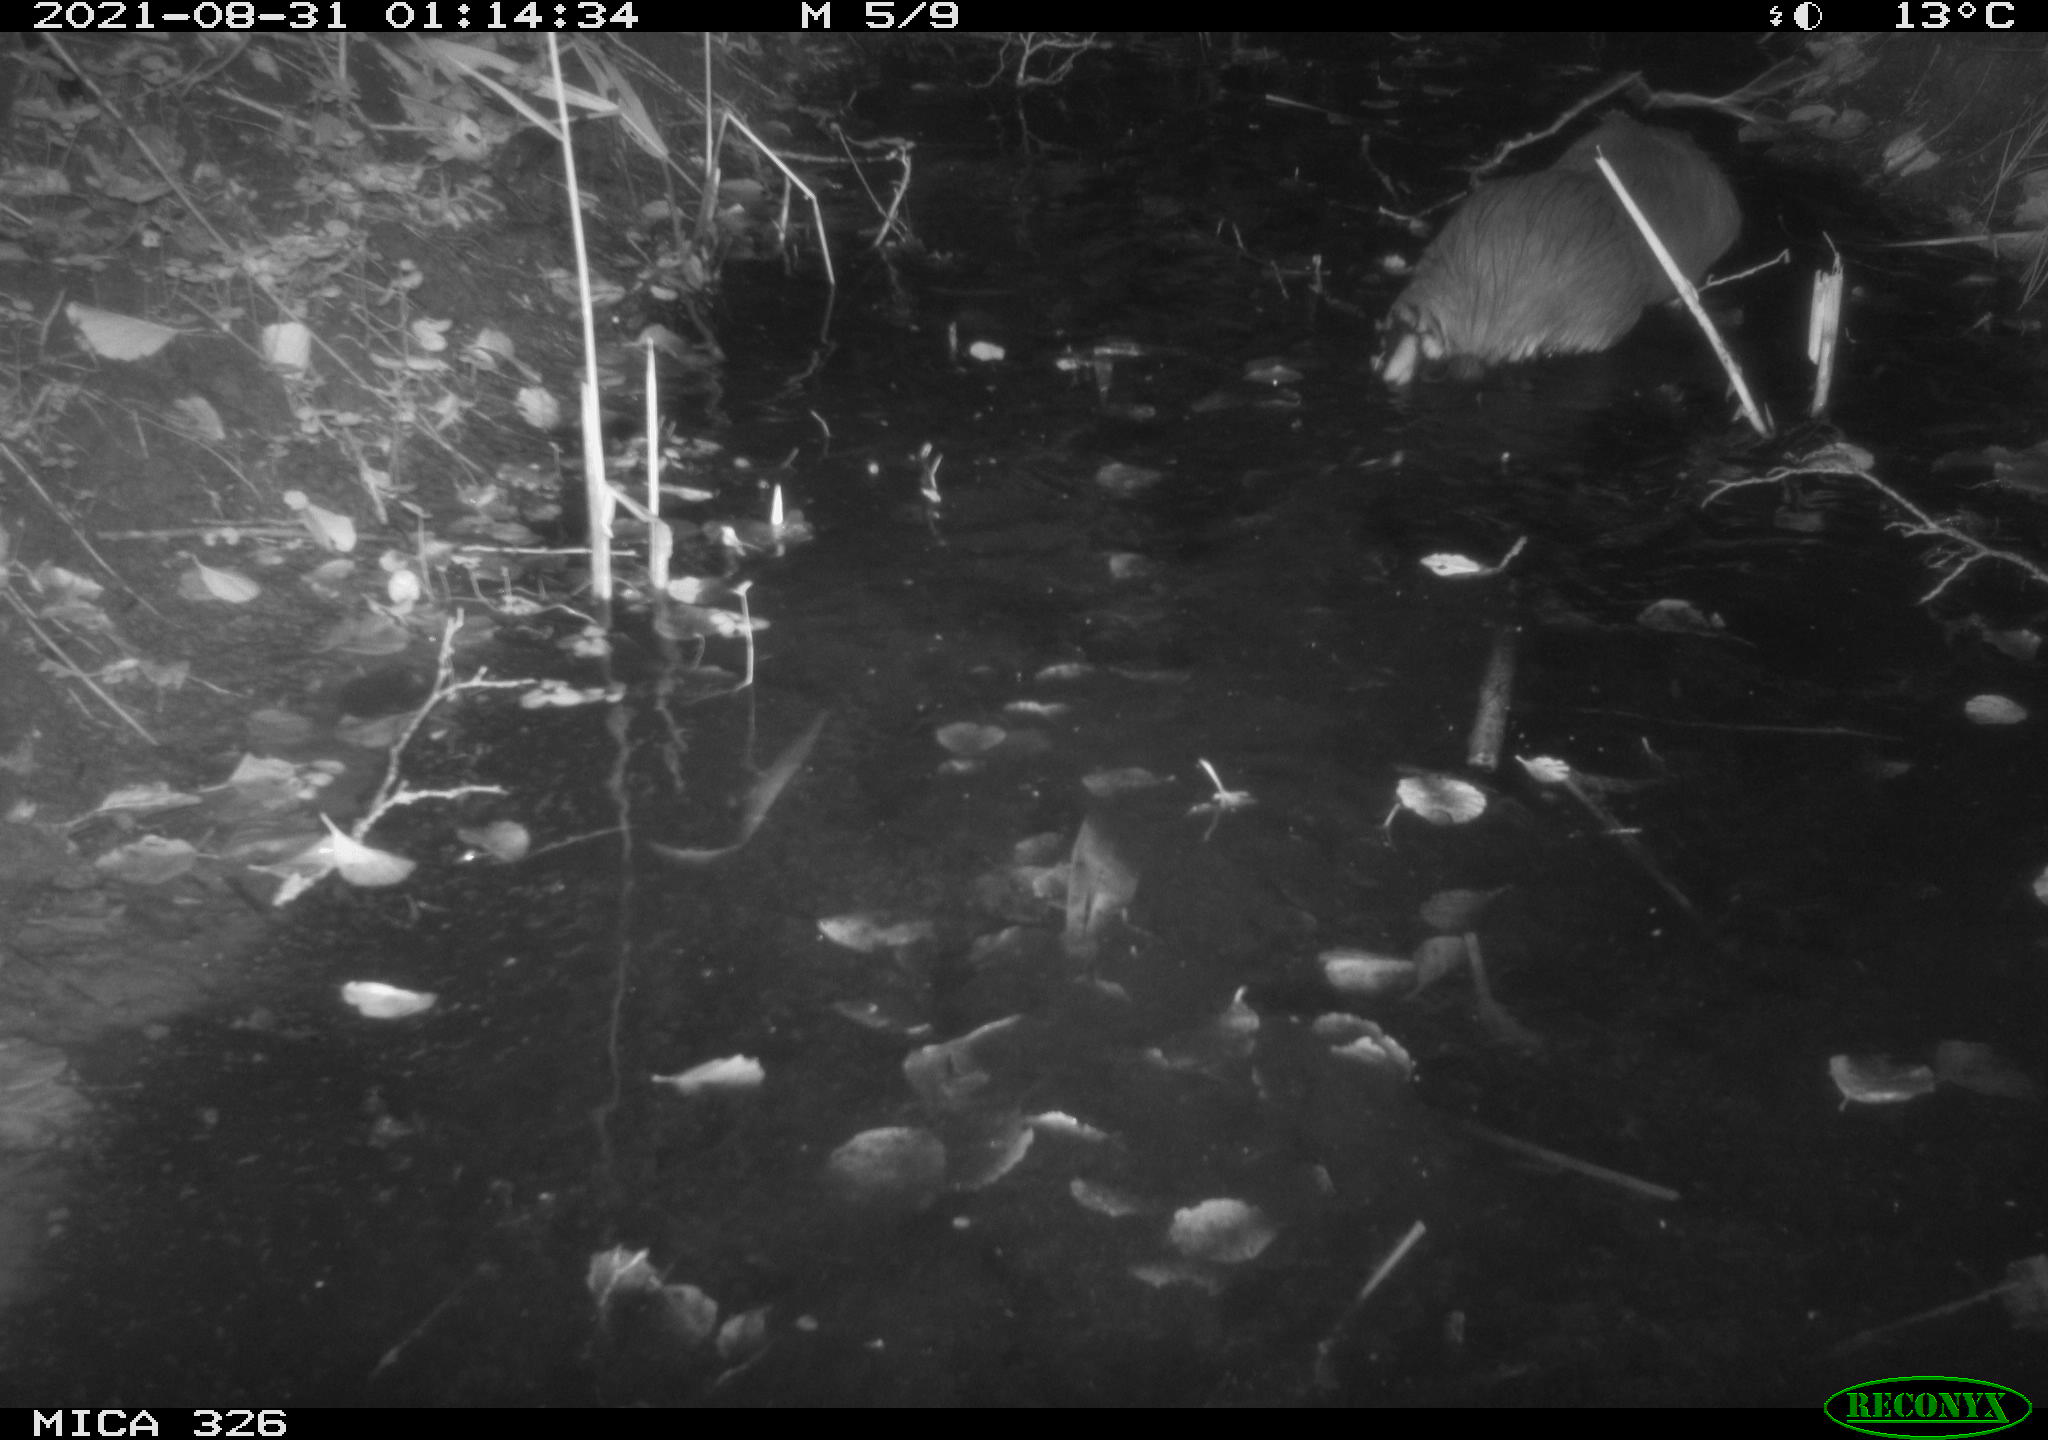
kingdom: Animalia
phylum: Chordata
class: Mammalia
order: Rodentia
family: Myocastoridae
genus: Myocastor
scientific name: Myocastor coypus
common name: Coypu
